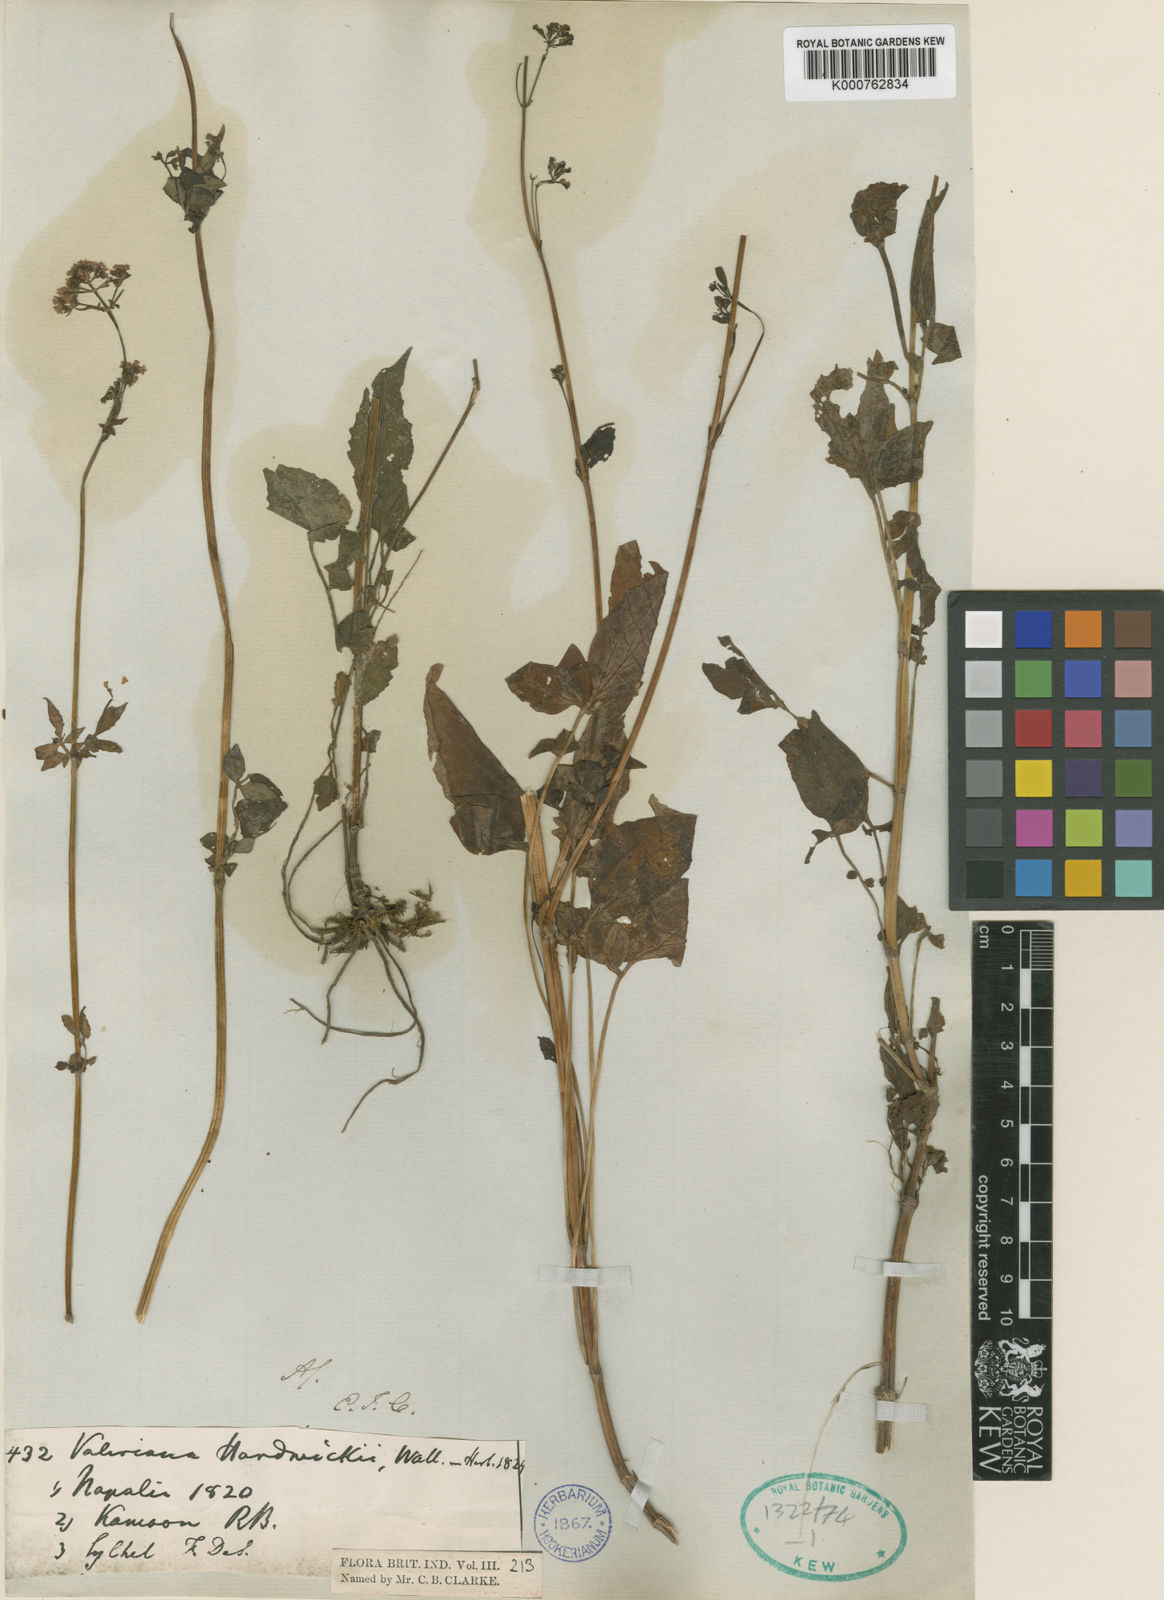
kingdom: Plantae
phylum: Tracheophyta
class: Magnoliopsida
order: Dipsacales
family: Caprifoliaceae
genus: Valeriana
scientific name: Valeriana hardwickei
